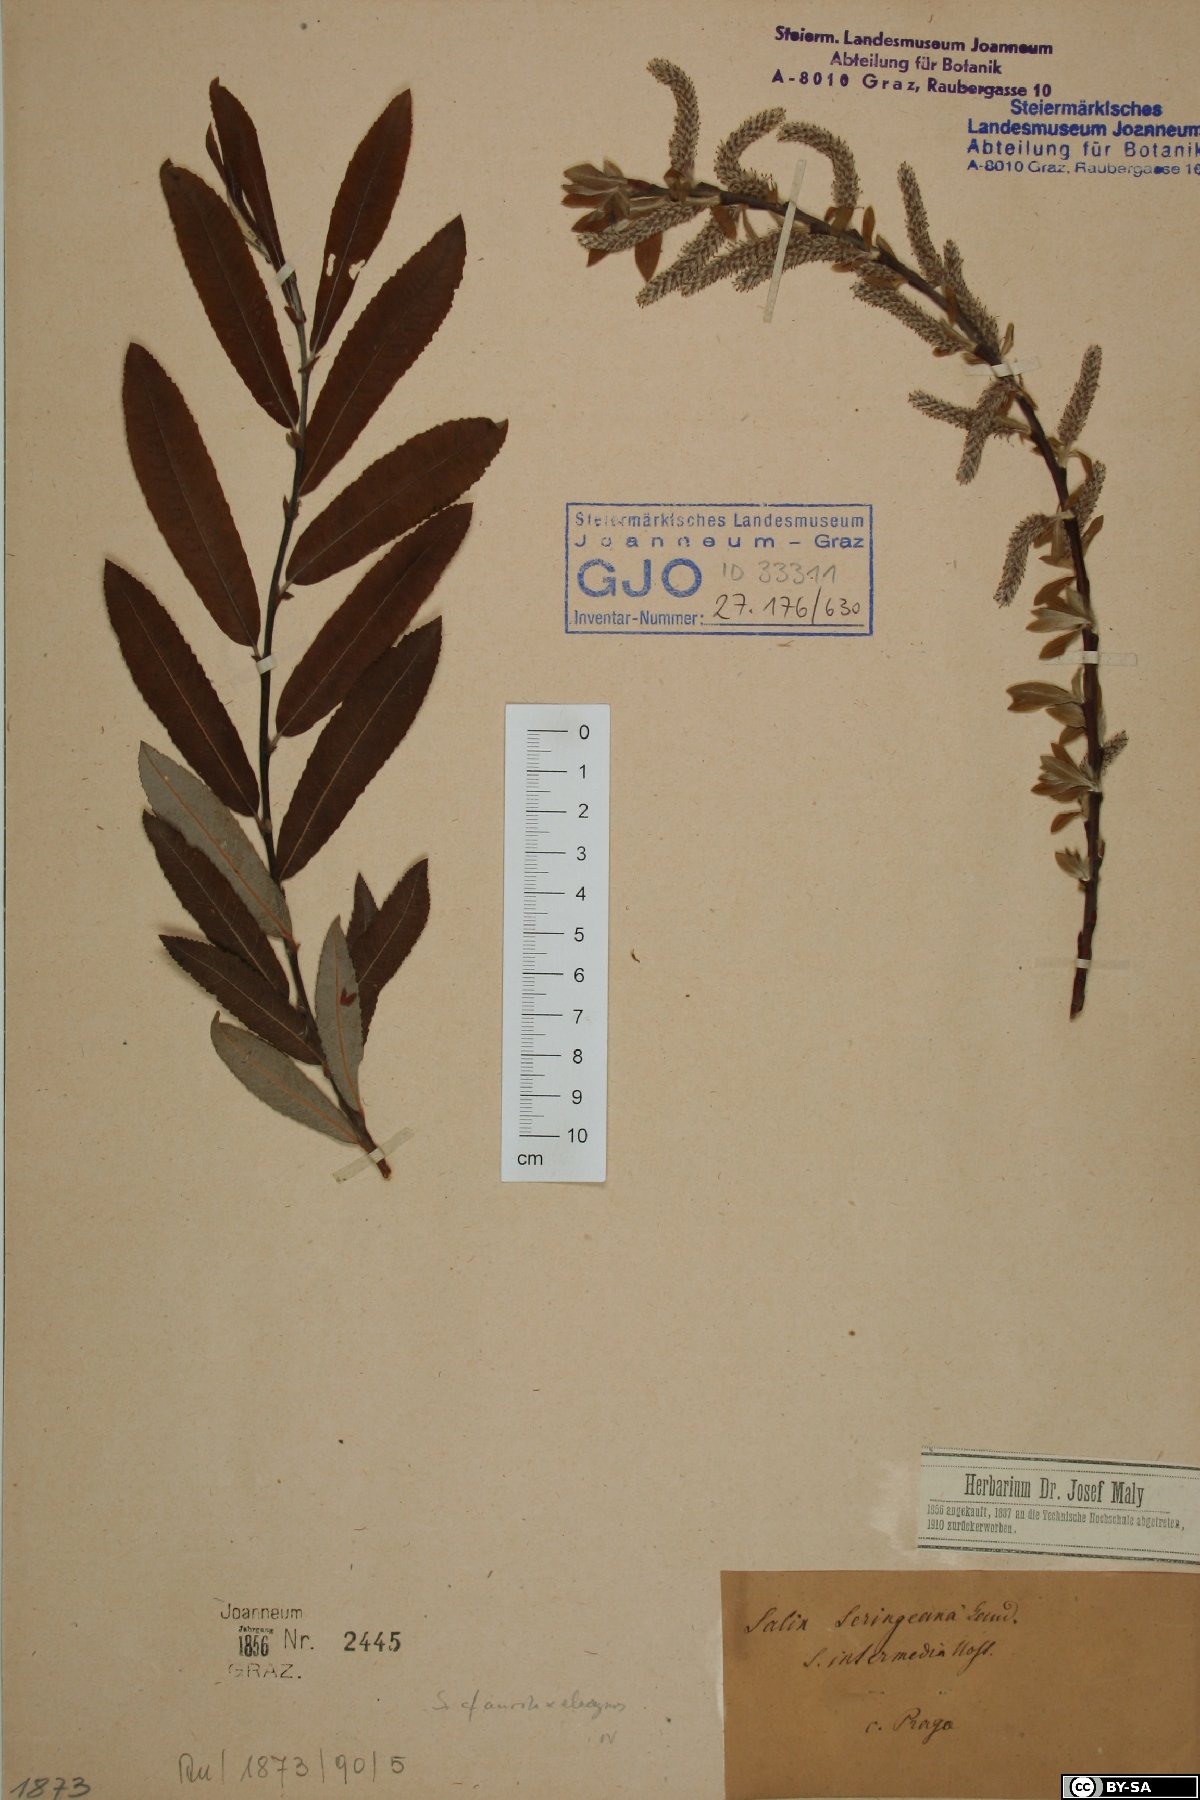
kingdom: Plantae
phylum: Tracheophyta
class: Magnoliopsida
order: Malpighiales
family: Salicaceae
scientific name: Salicaceae
